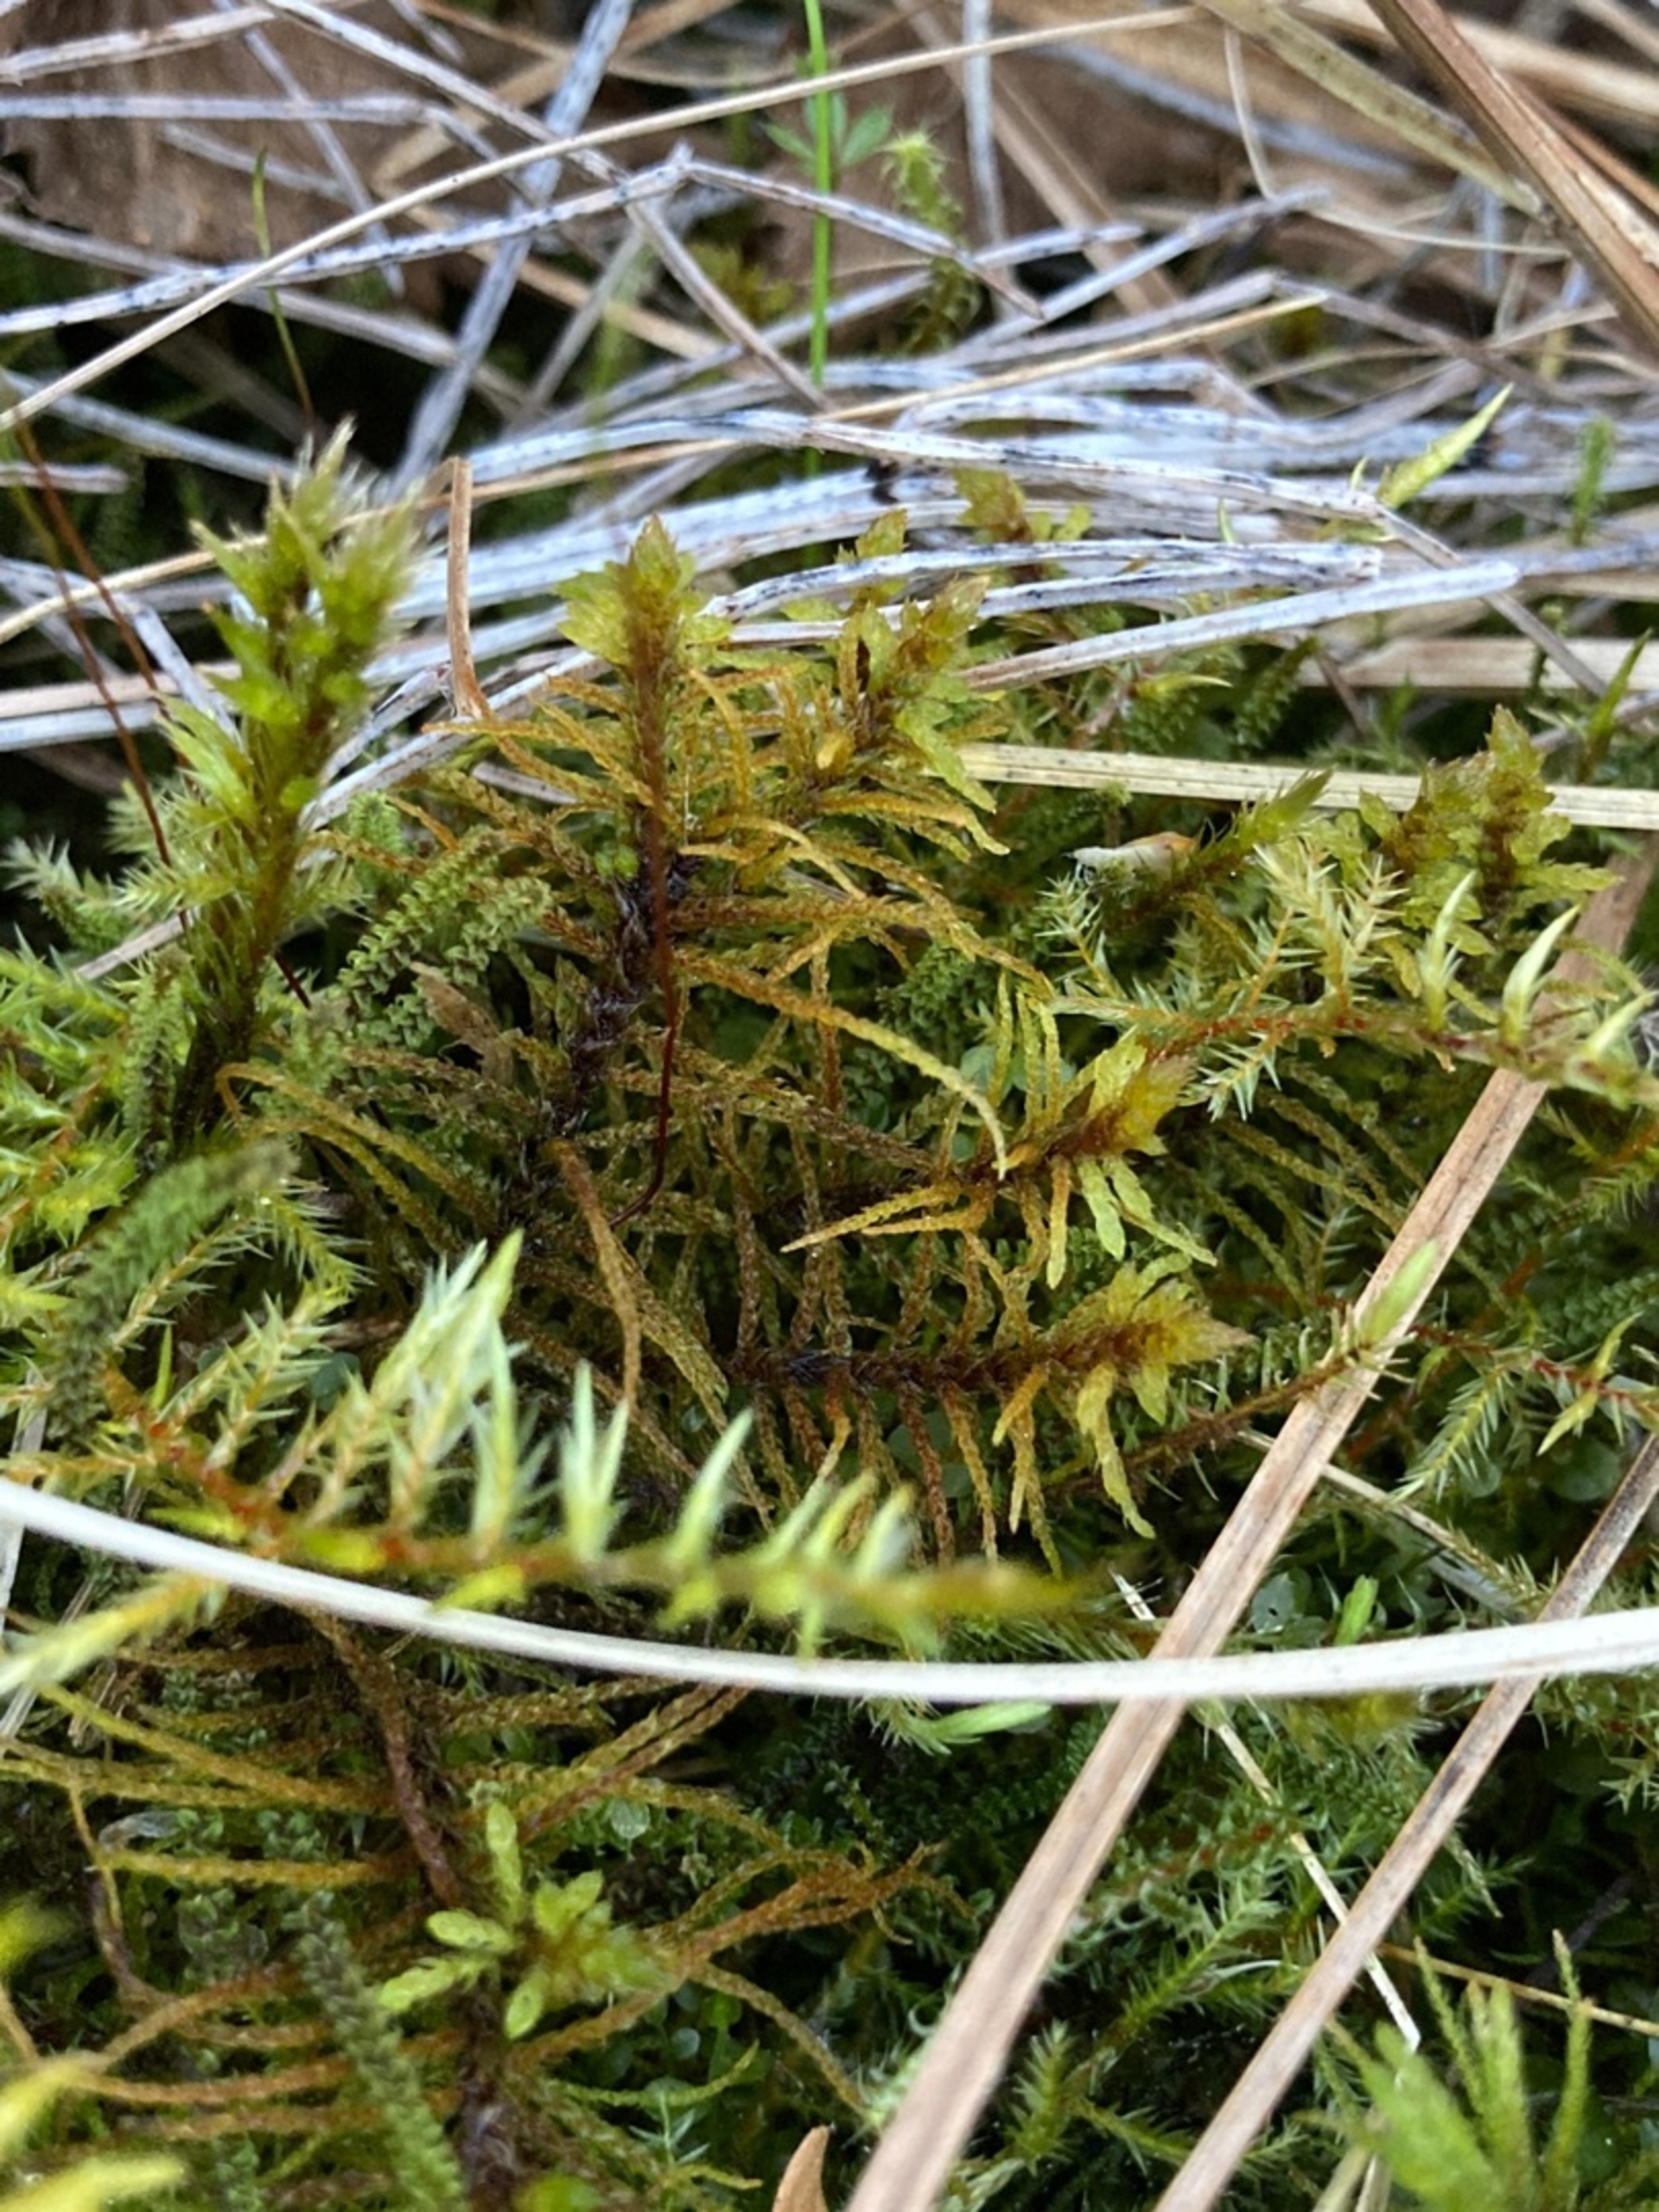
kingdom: Plantae
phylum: Bryophyta
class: Bryopsida
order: Splachnales
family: Meesiaceae
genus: Paludella
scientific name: Paludella squarrosa
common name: Almindelig piberensermos
